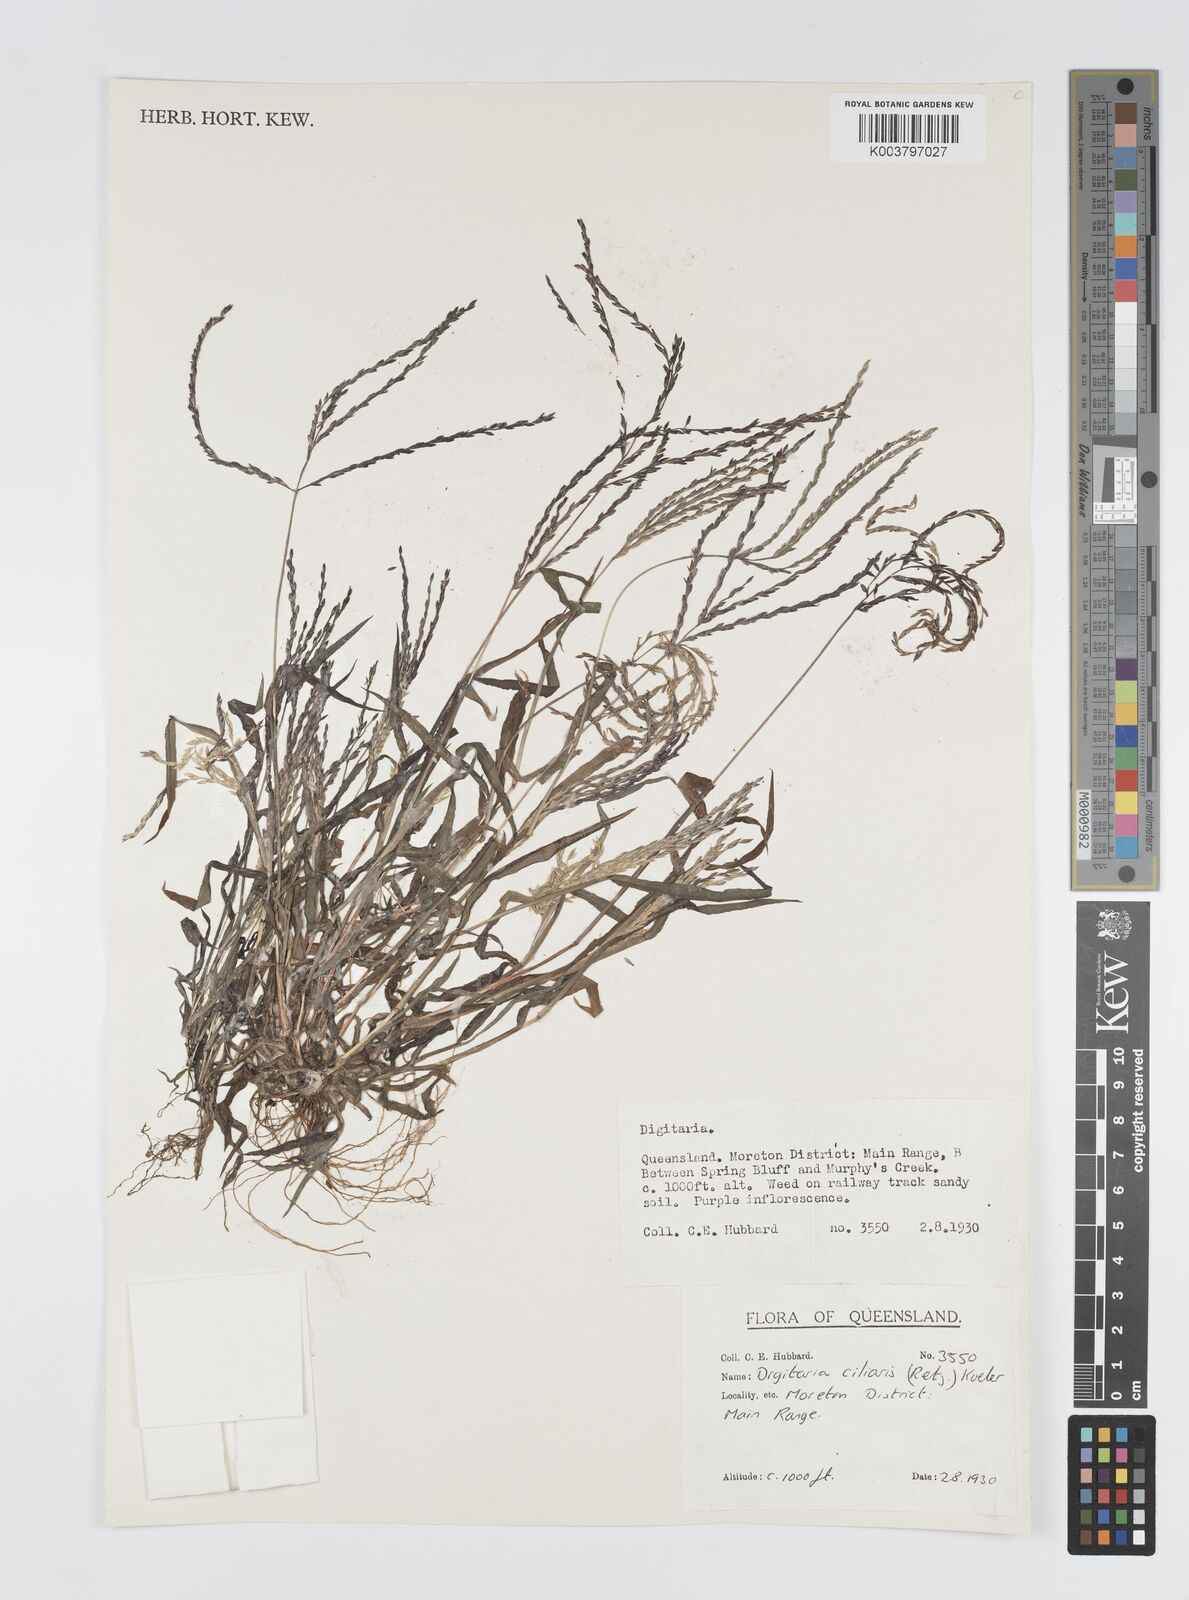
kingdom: Plantae
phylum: Tracheophyta
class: Liliopsida
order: Poales
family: Poaceae
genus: Digitaria
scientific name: Digitaria ciliaris
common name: Tropical finger-grass
